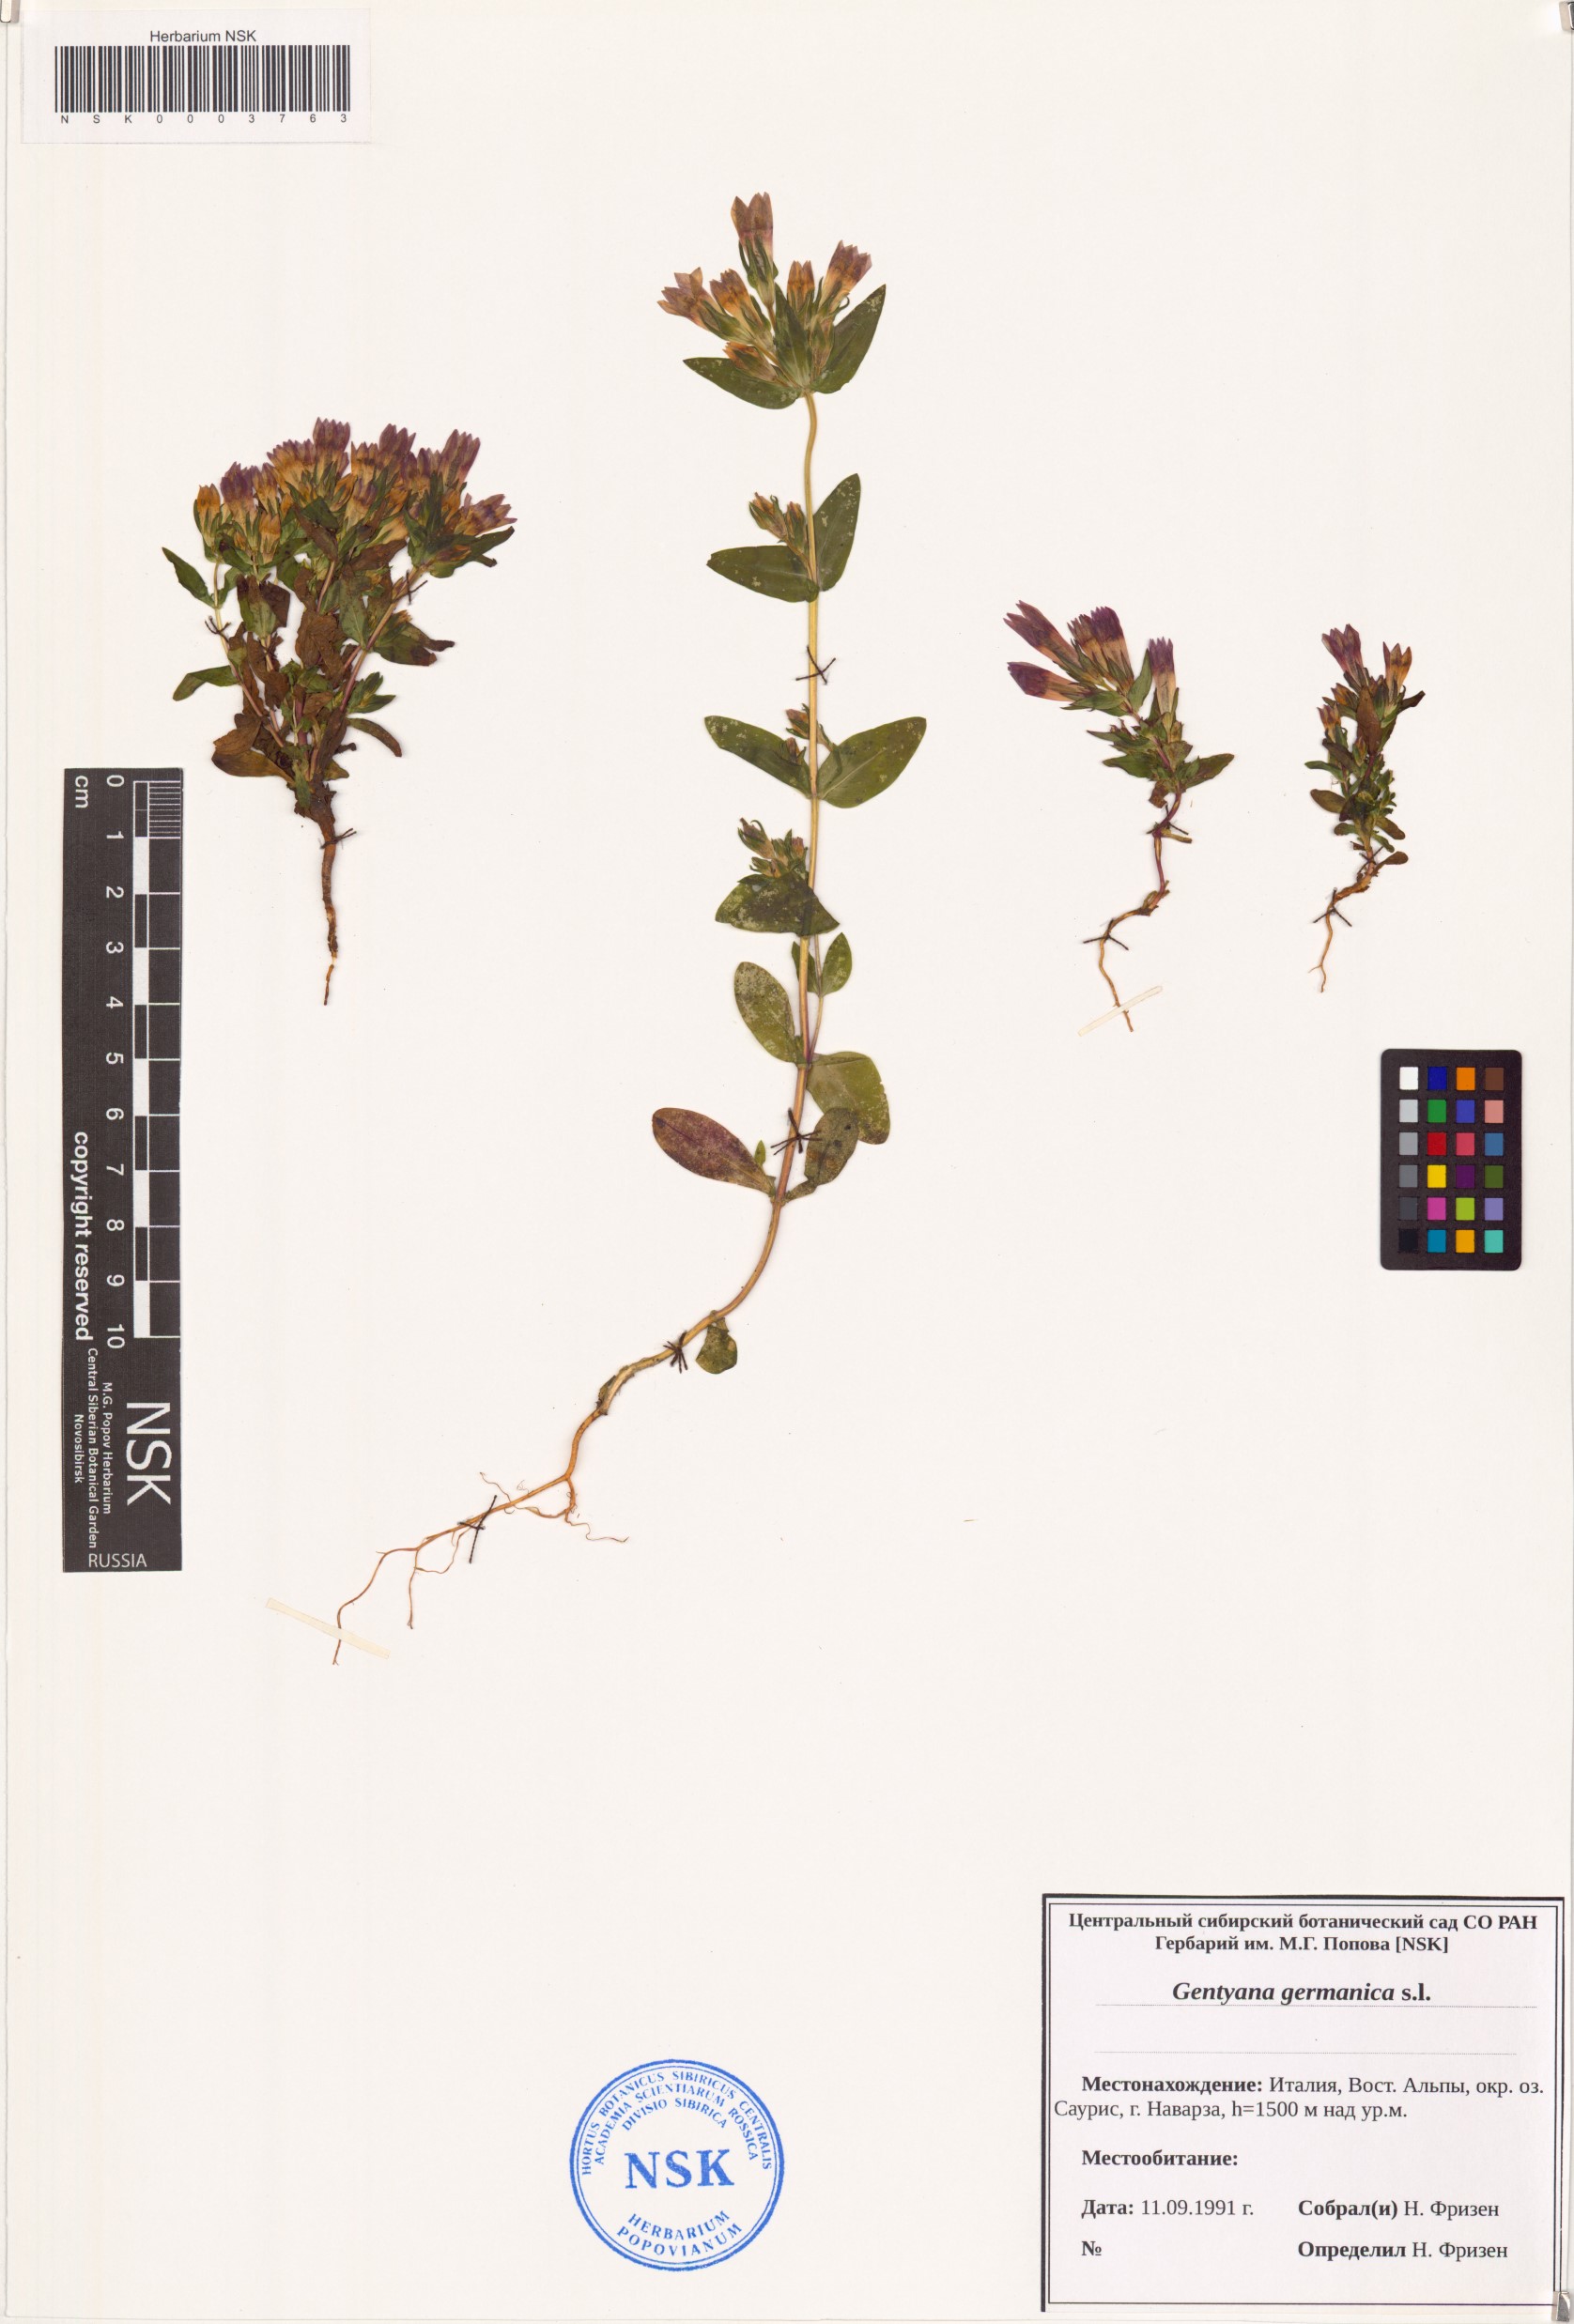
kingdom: Plantae
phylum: Tracheophyta
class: Magnoliopsida
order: Gentianales
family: Gentianaceae
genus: Gentianella
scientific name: Gentianella germanica
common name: Chiltern-gentian
